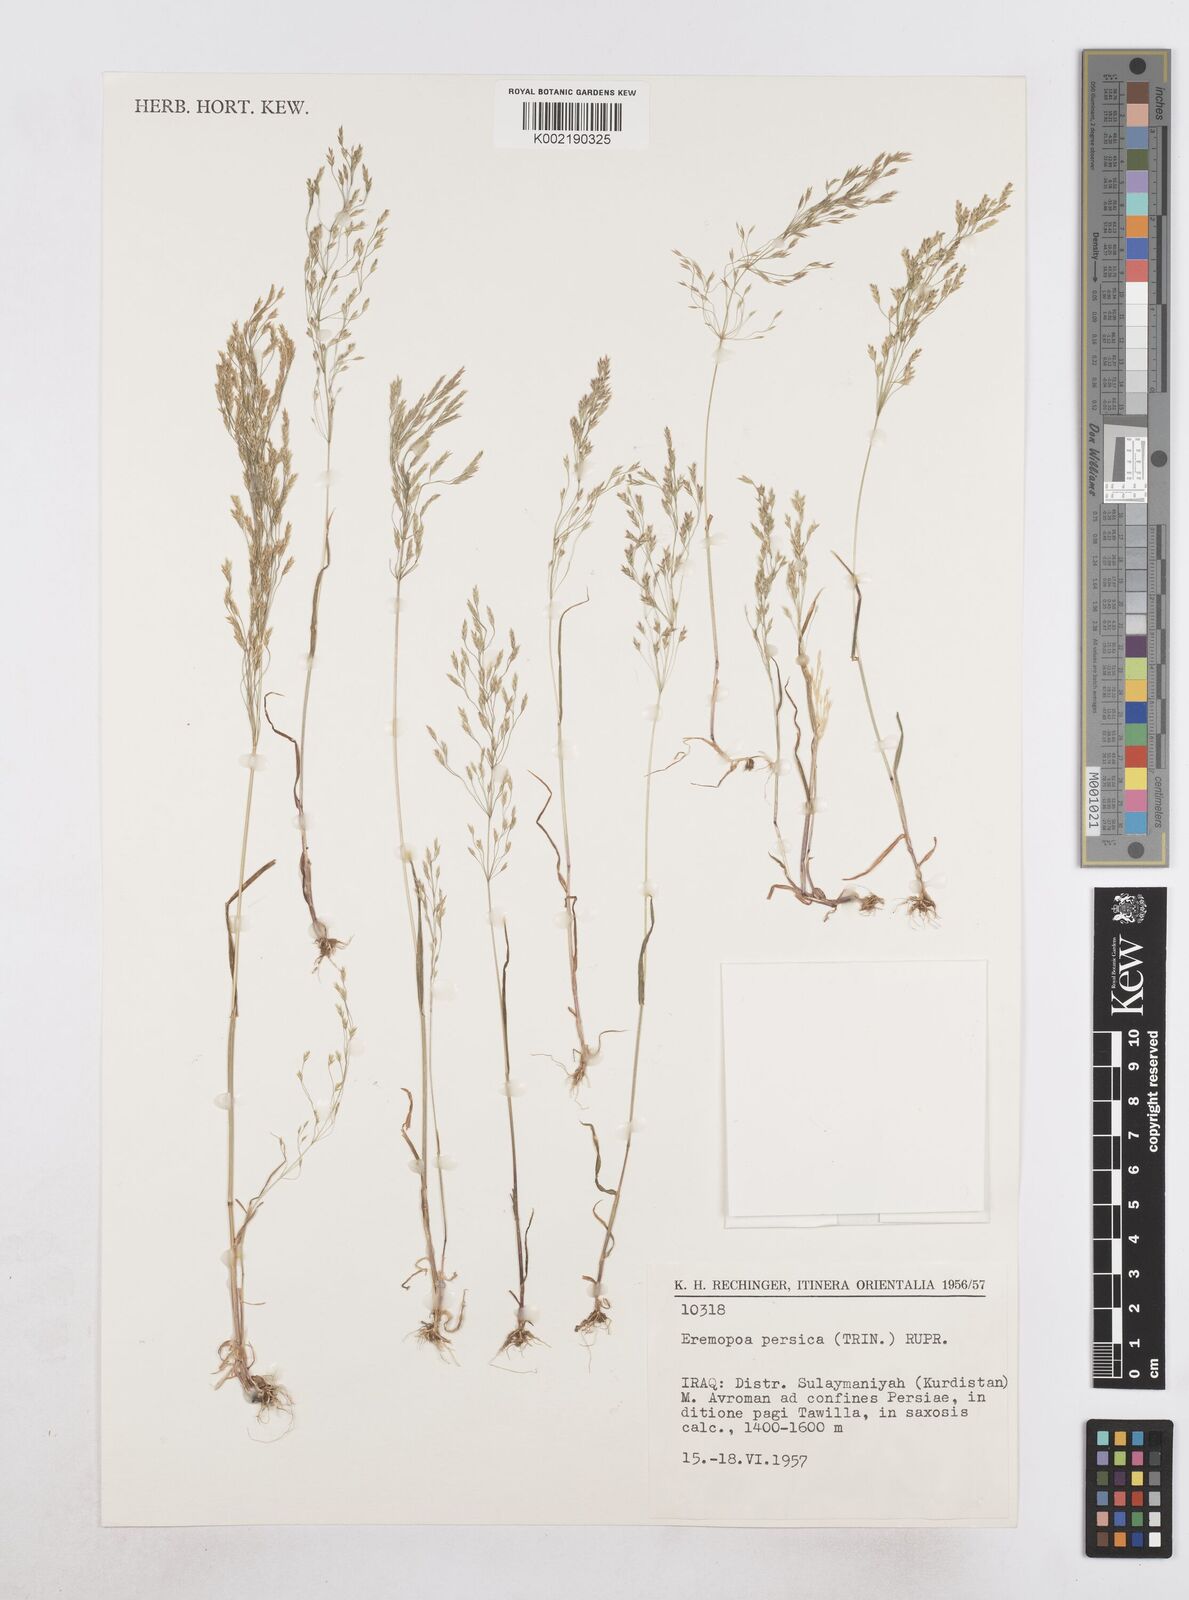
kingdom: Plantae
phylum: Tracheophyta
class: Liliopsida
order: Poales
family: Poaceae
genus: Poa
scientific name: Poa persica
